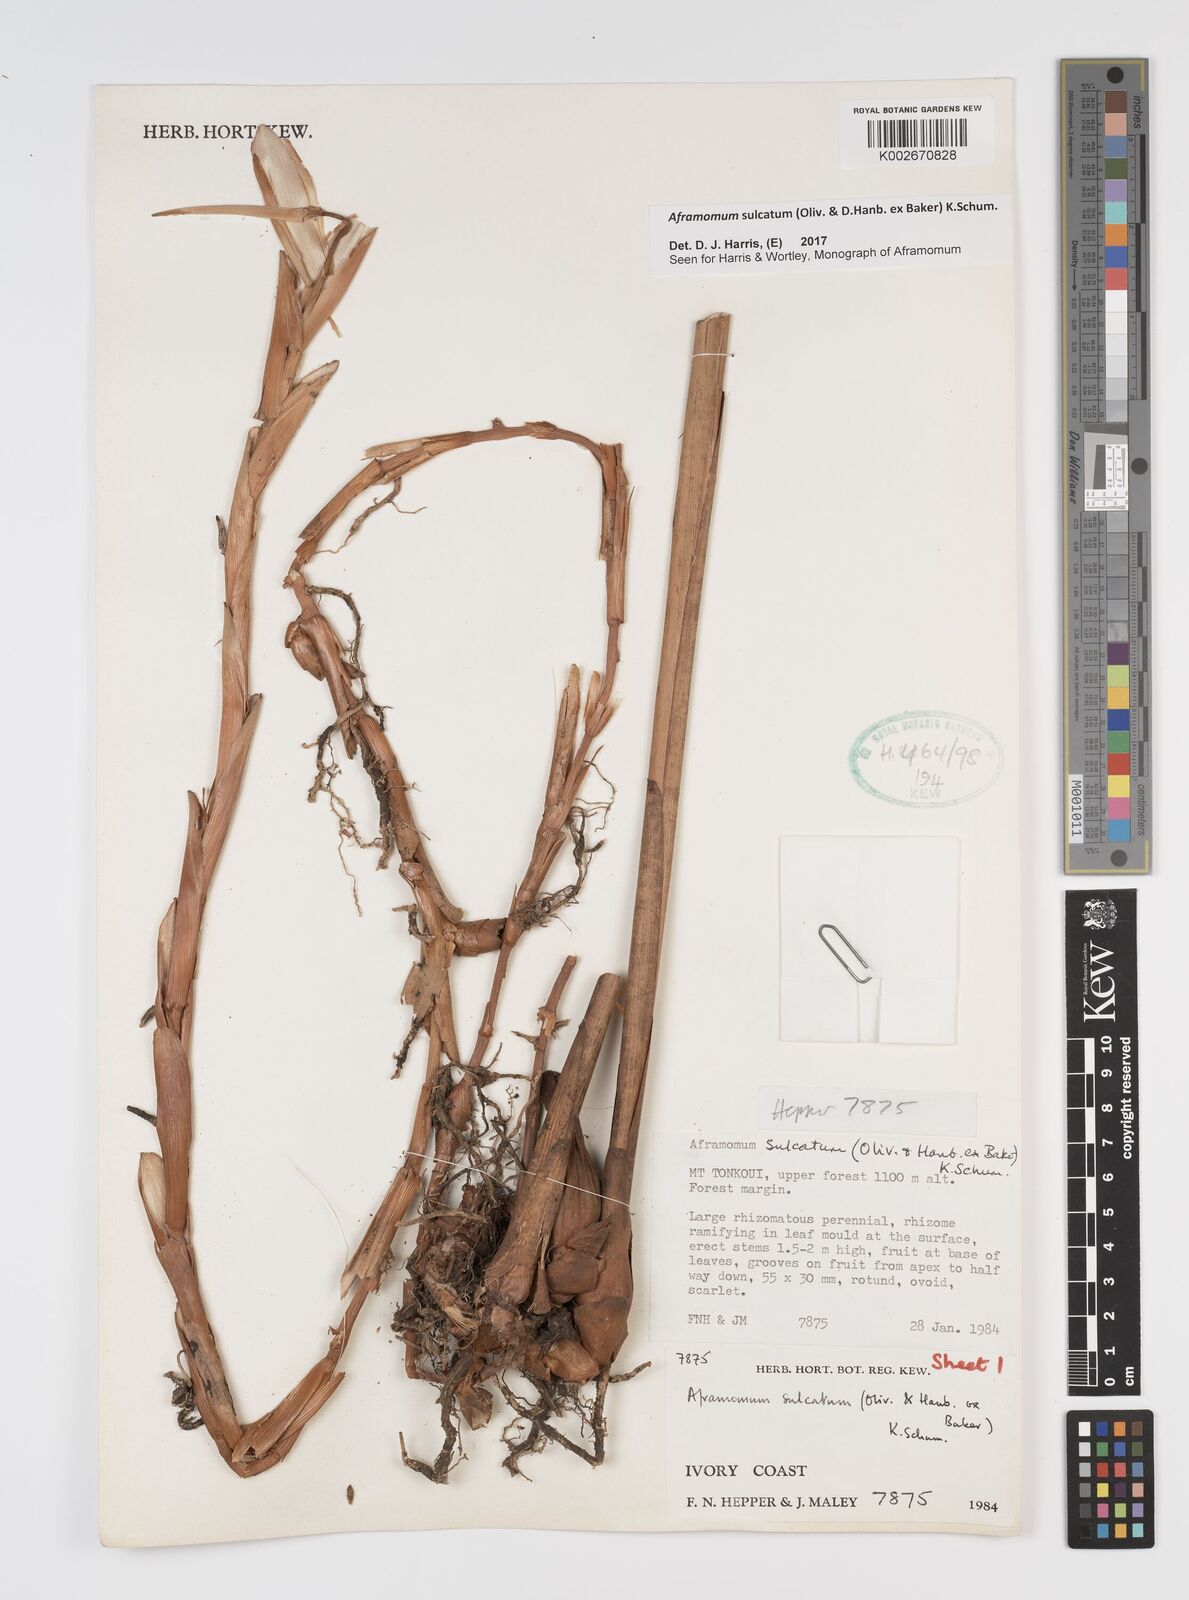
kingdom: Plantae
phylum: Tracheophyta
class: Liliopsida
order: Zingiberales
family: Zingiberaceae
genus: Aframomum
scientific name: Aframomum sulcatum
